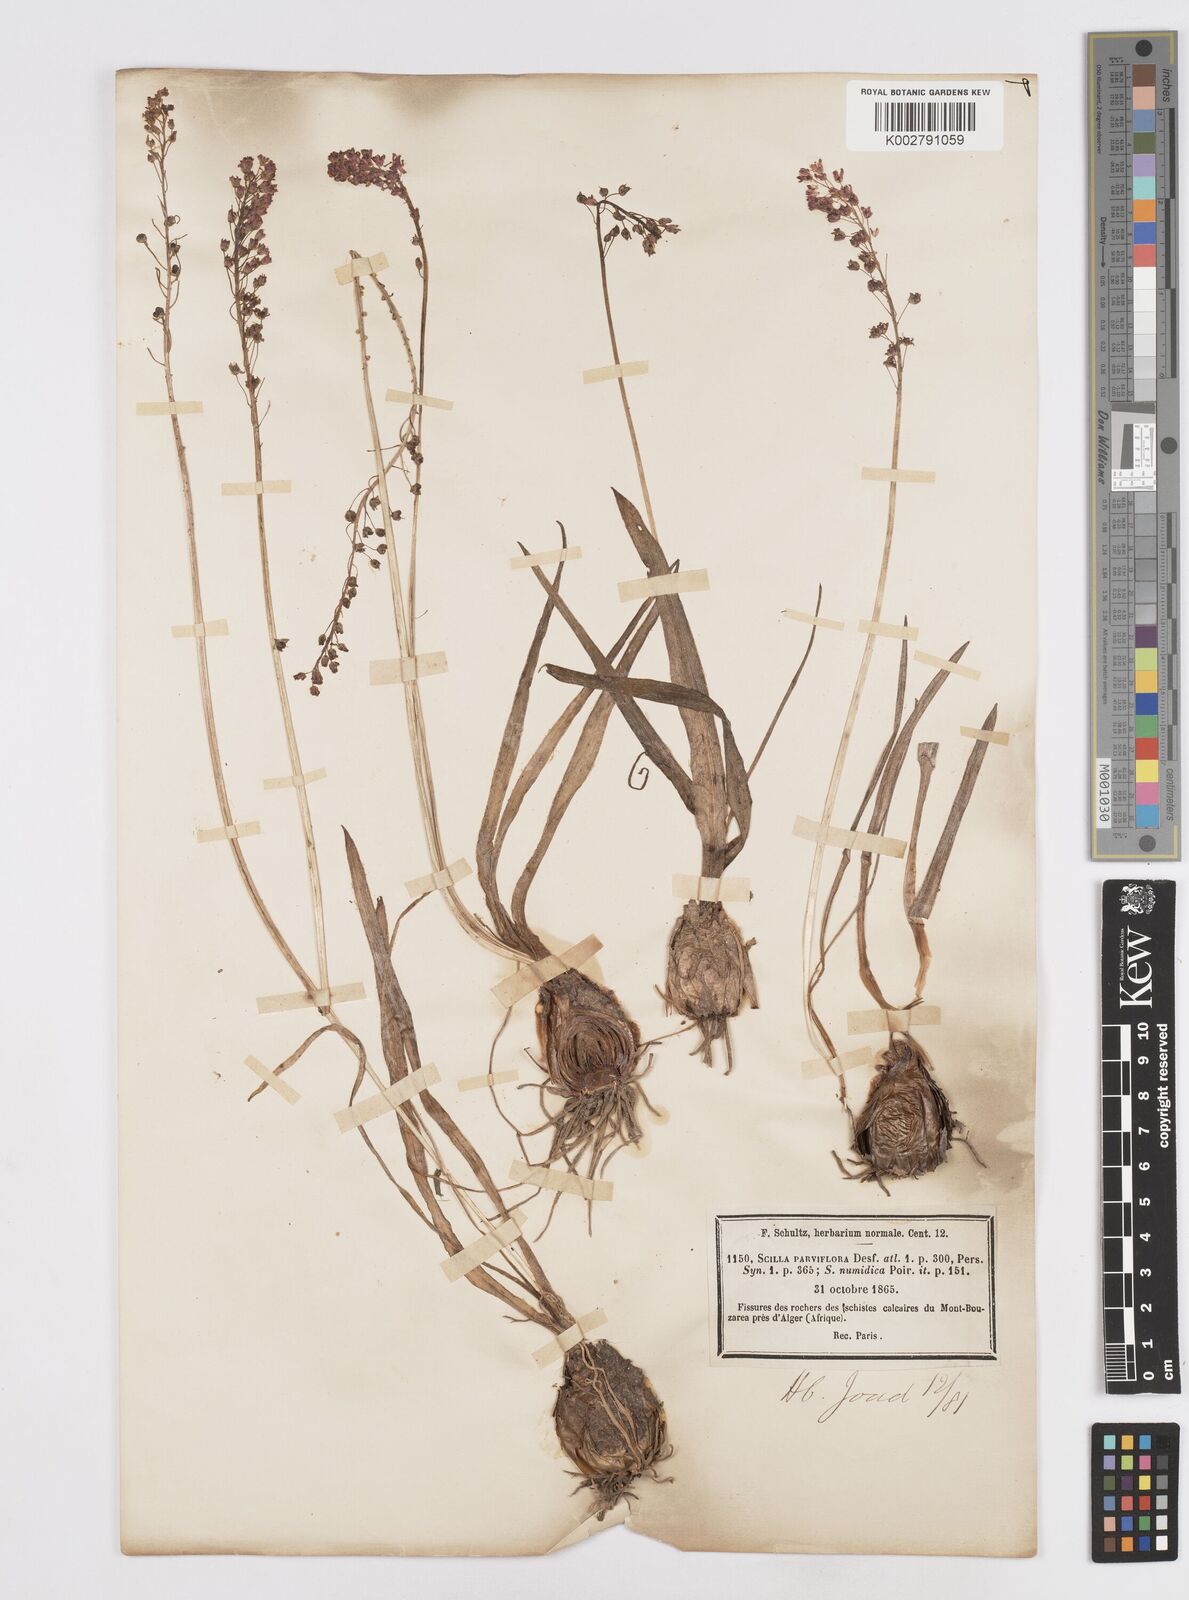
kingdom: Plantae
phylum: Tracheophyta
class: Liliopsida
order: Asparagales
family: Asparagaceae
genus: Barnardia
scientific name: Barnardia numidica
